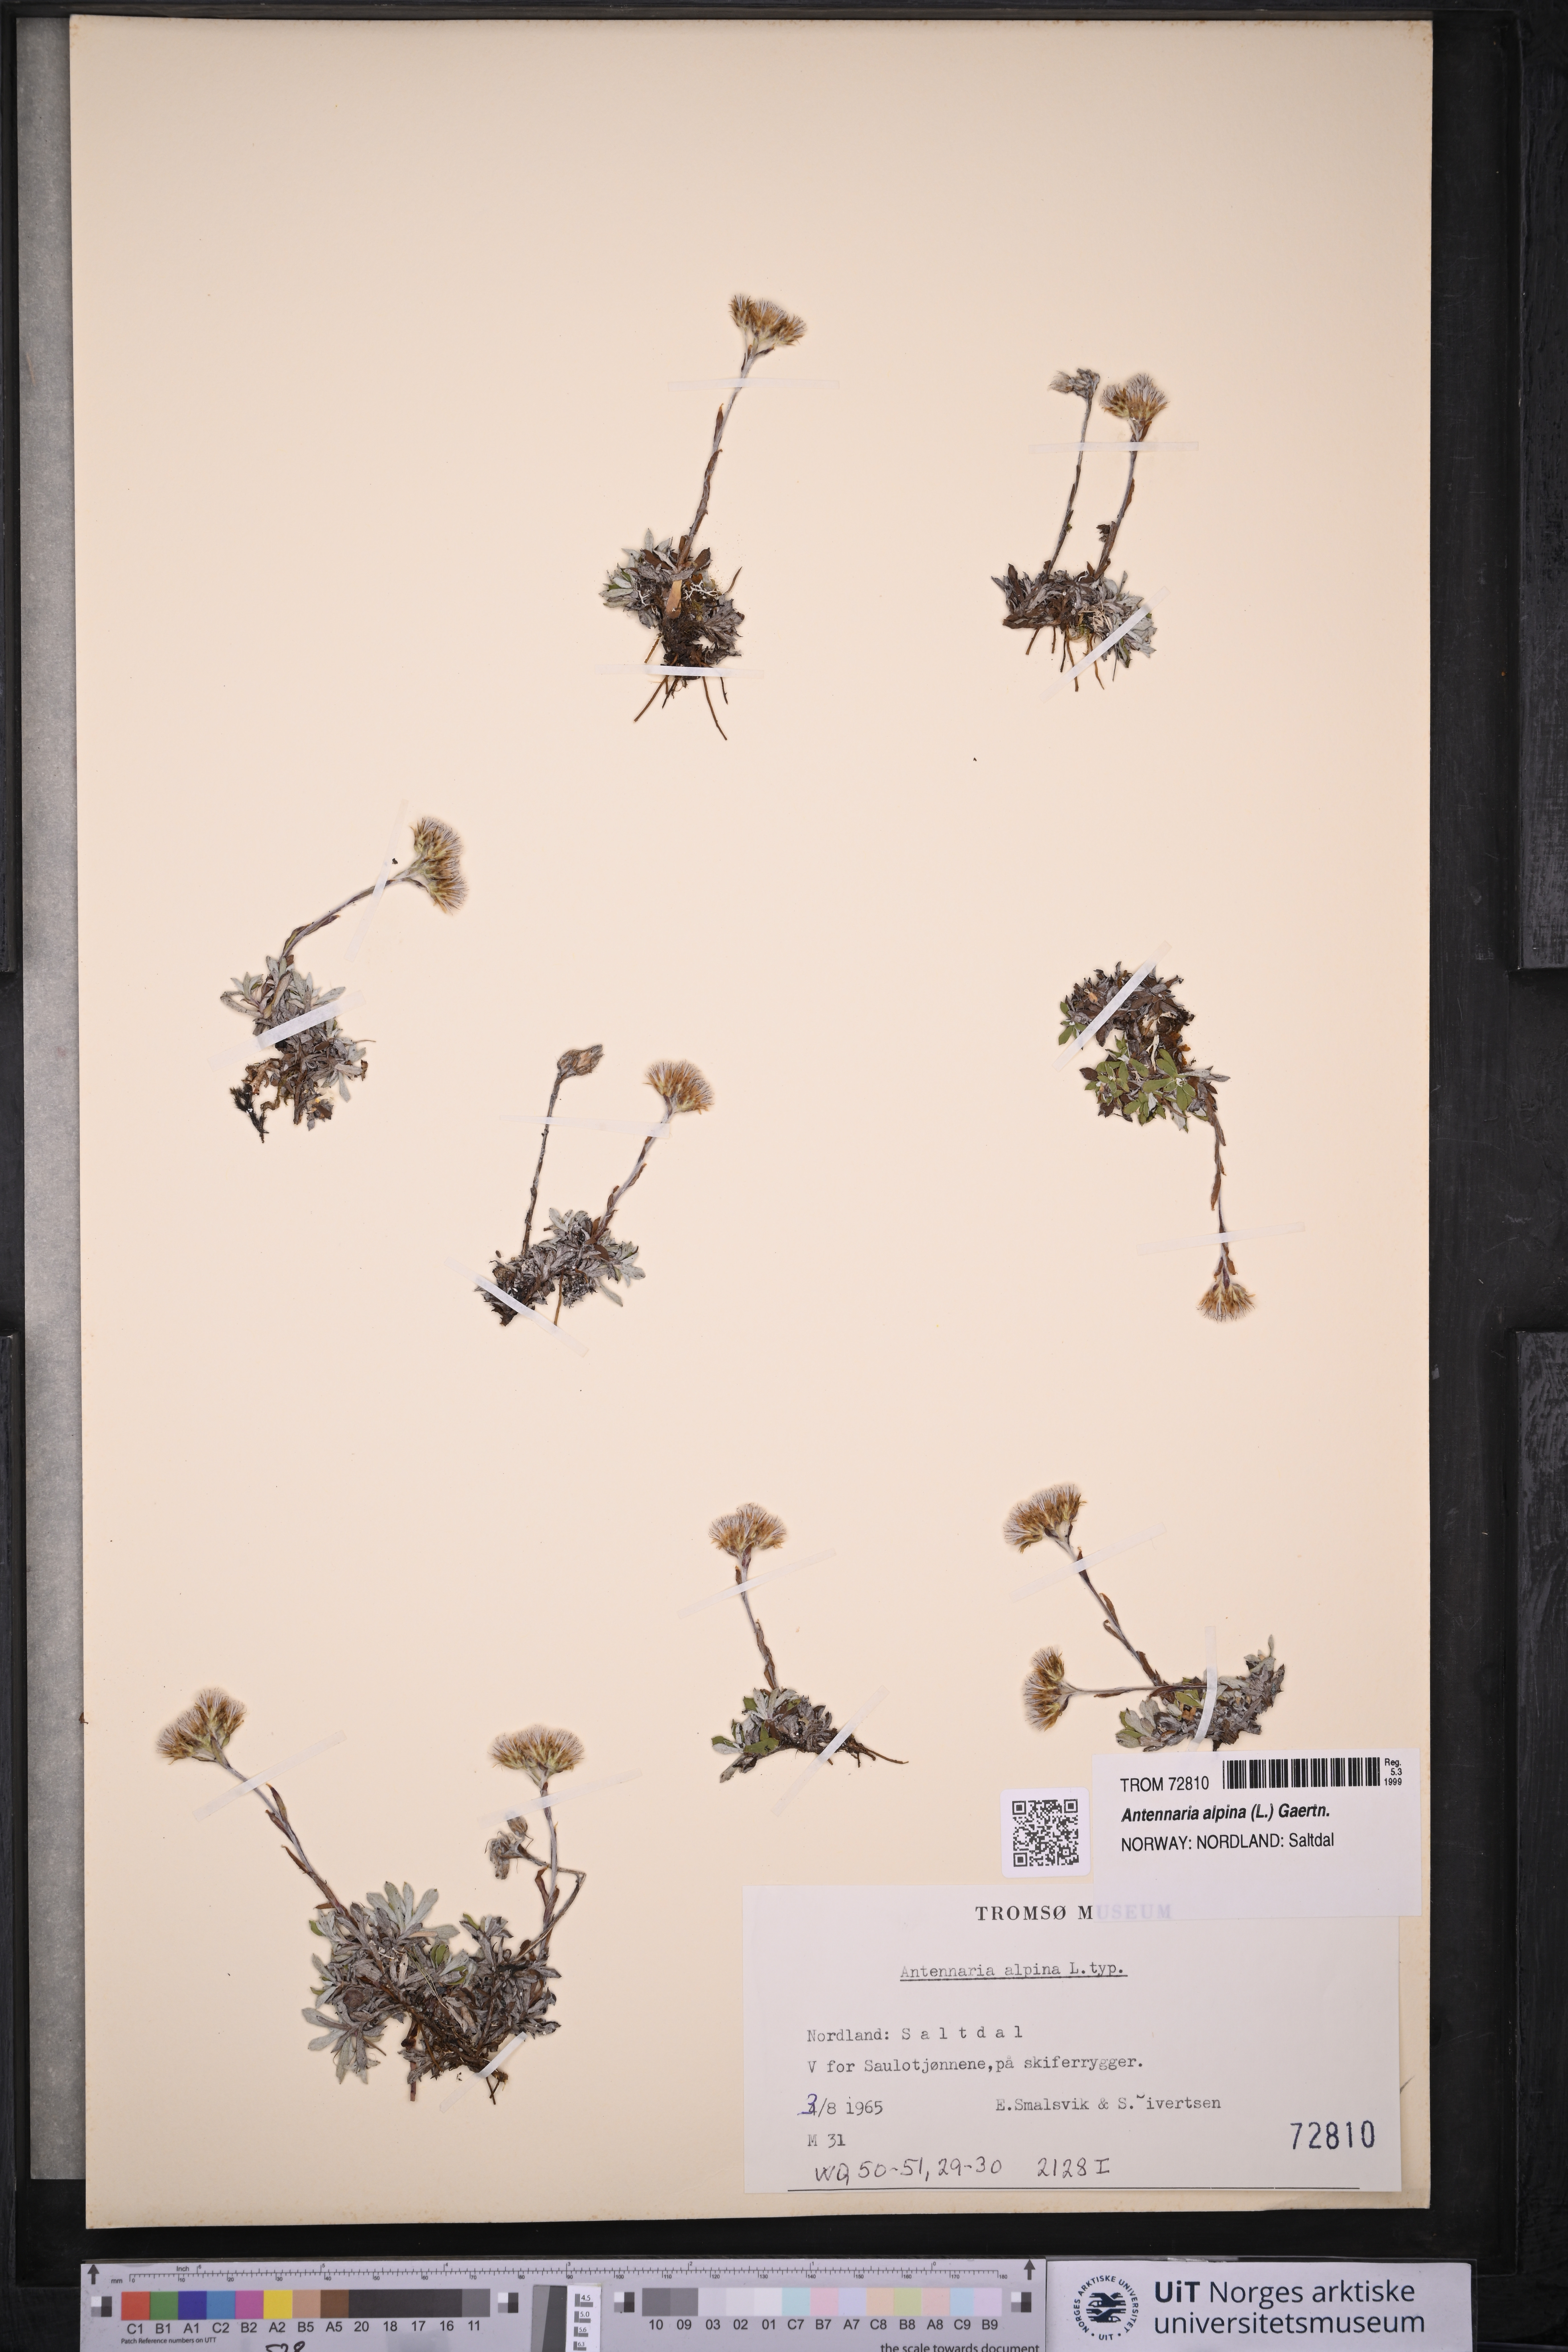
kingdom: Plantae
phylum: Tracheophyta
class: Magnoliopsida
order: Asterales
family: Asteraceae
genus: Antennaria
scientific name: Antennaria alpina
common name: Alpine pussytoes
